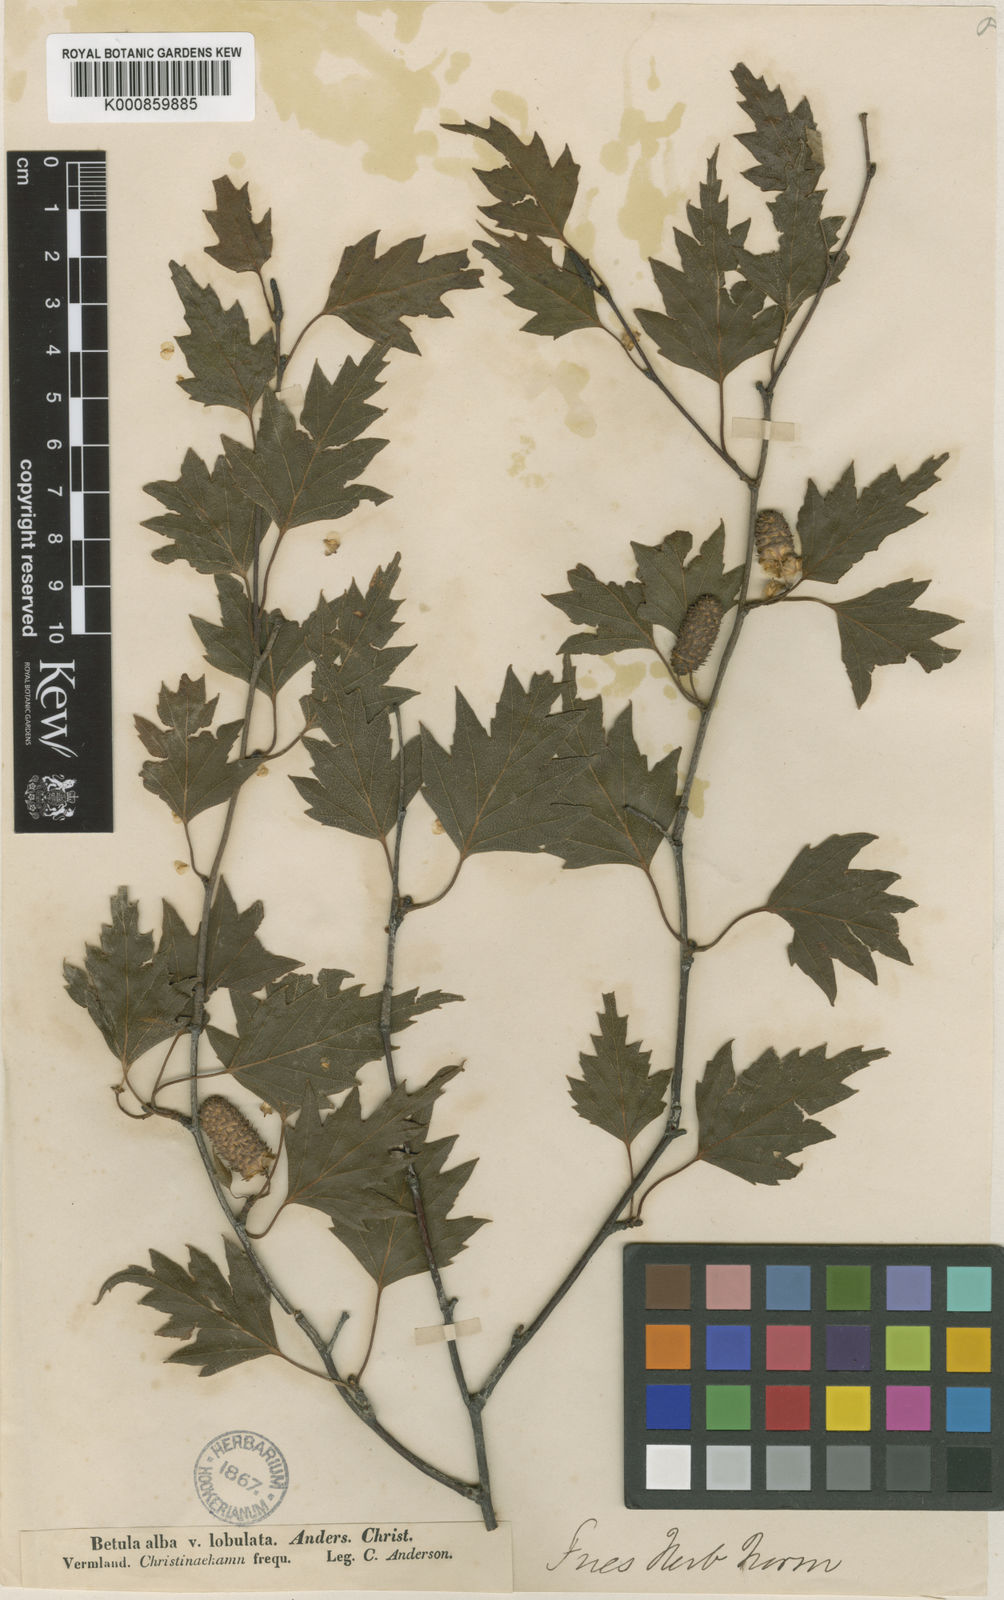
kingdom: Plantae
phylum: Tracheophyta
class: Magnoliopsida
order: Fagales
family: Betulaceae
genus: Betula
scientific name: Betula
